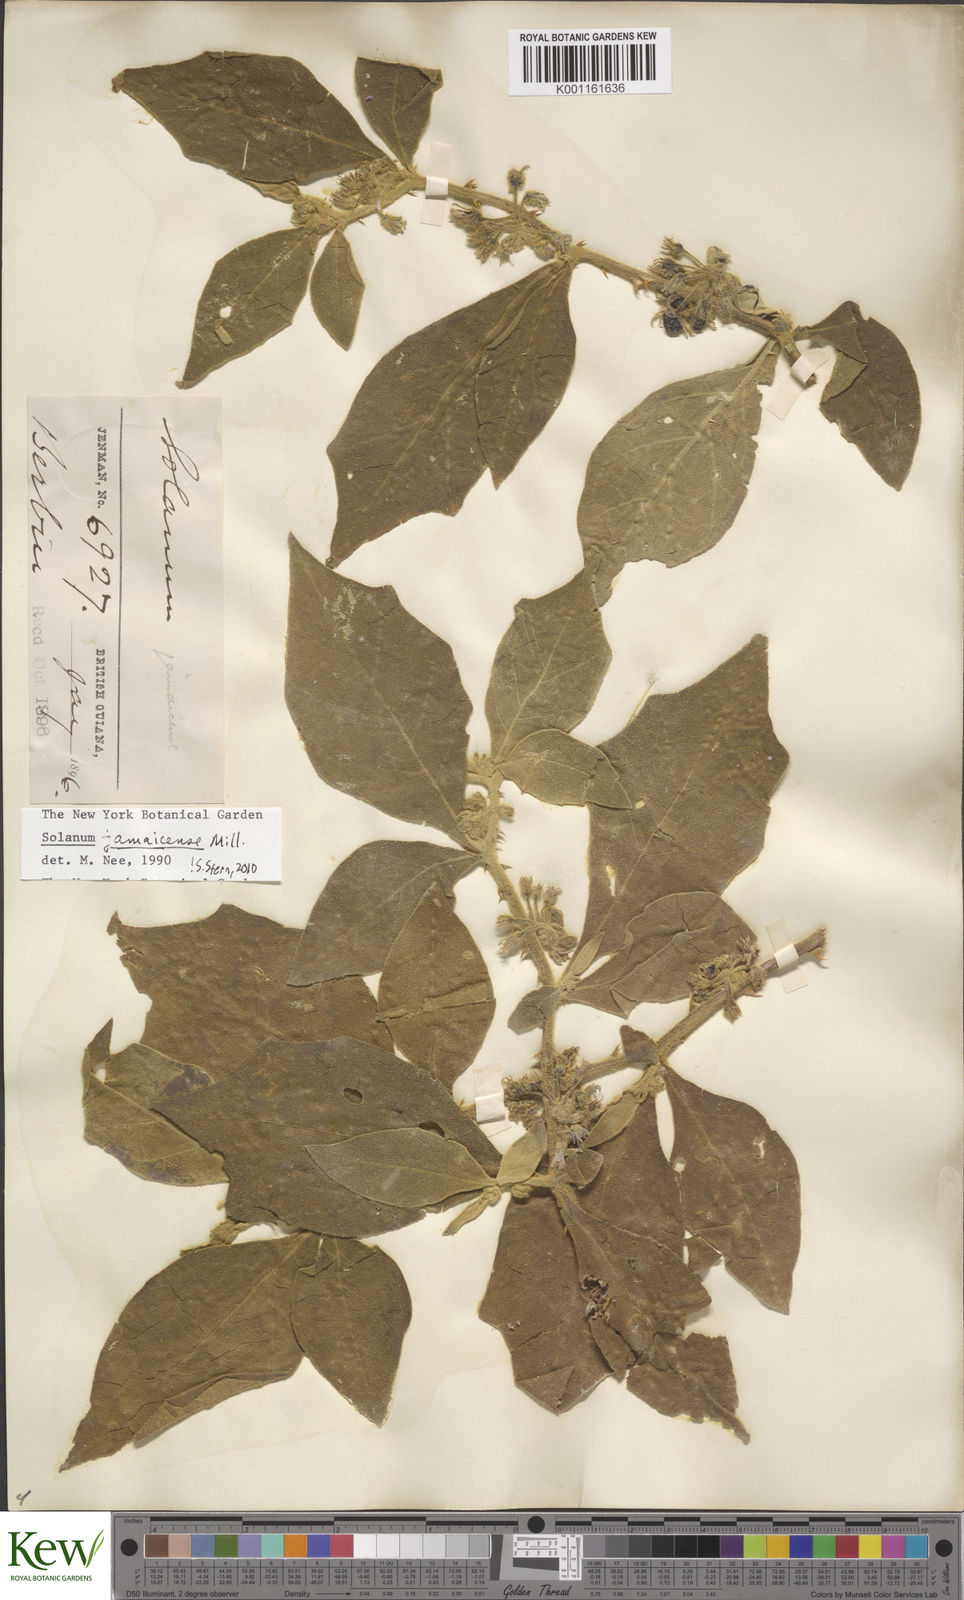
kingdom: Plantae
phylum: Tracheophyta
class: Magnoliopsida
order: Solanales
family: Solanaceae
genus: Solanum
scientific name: Solanum jamaicense
